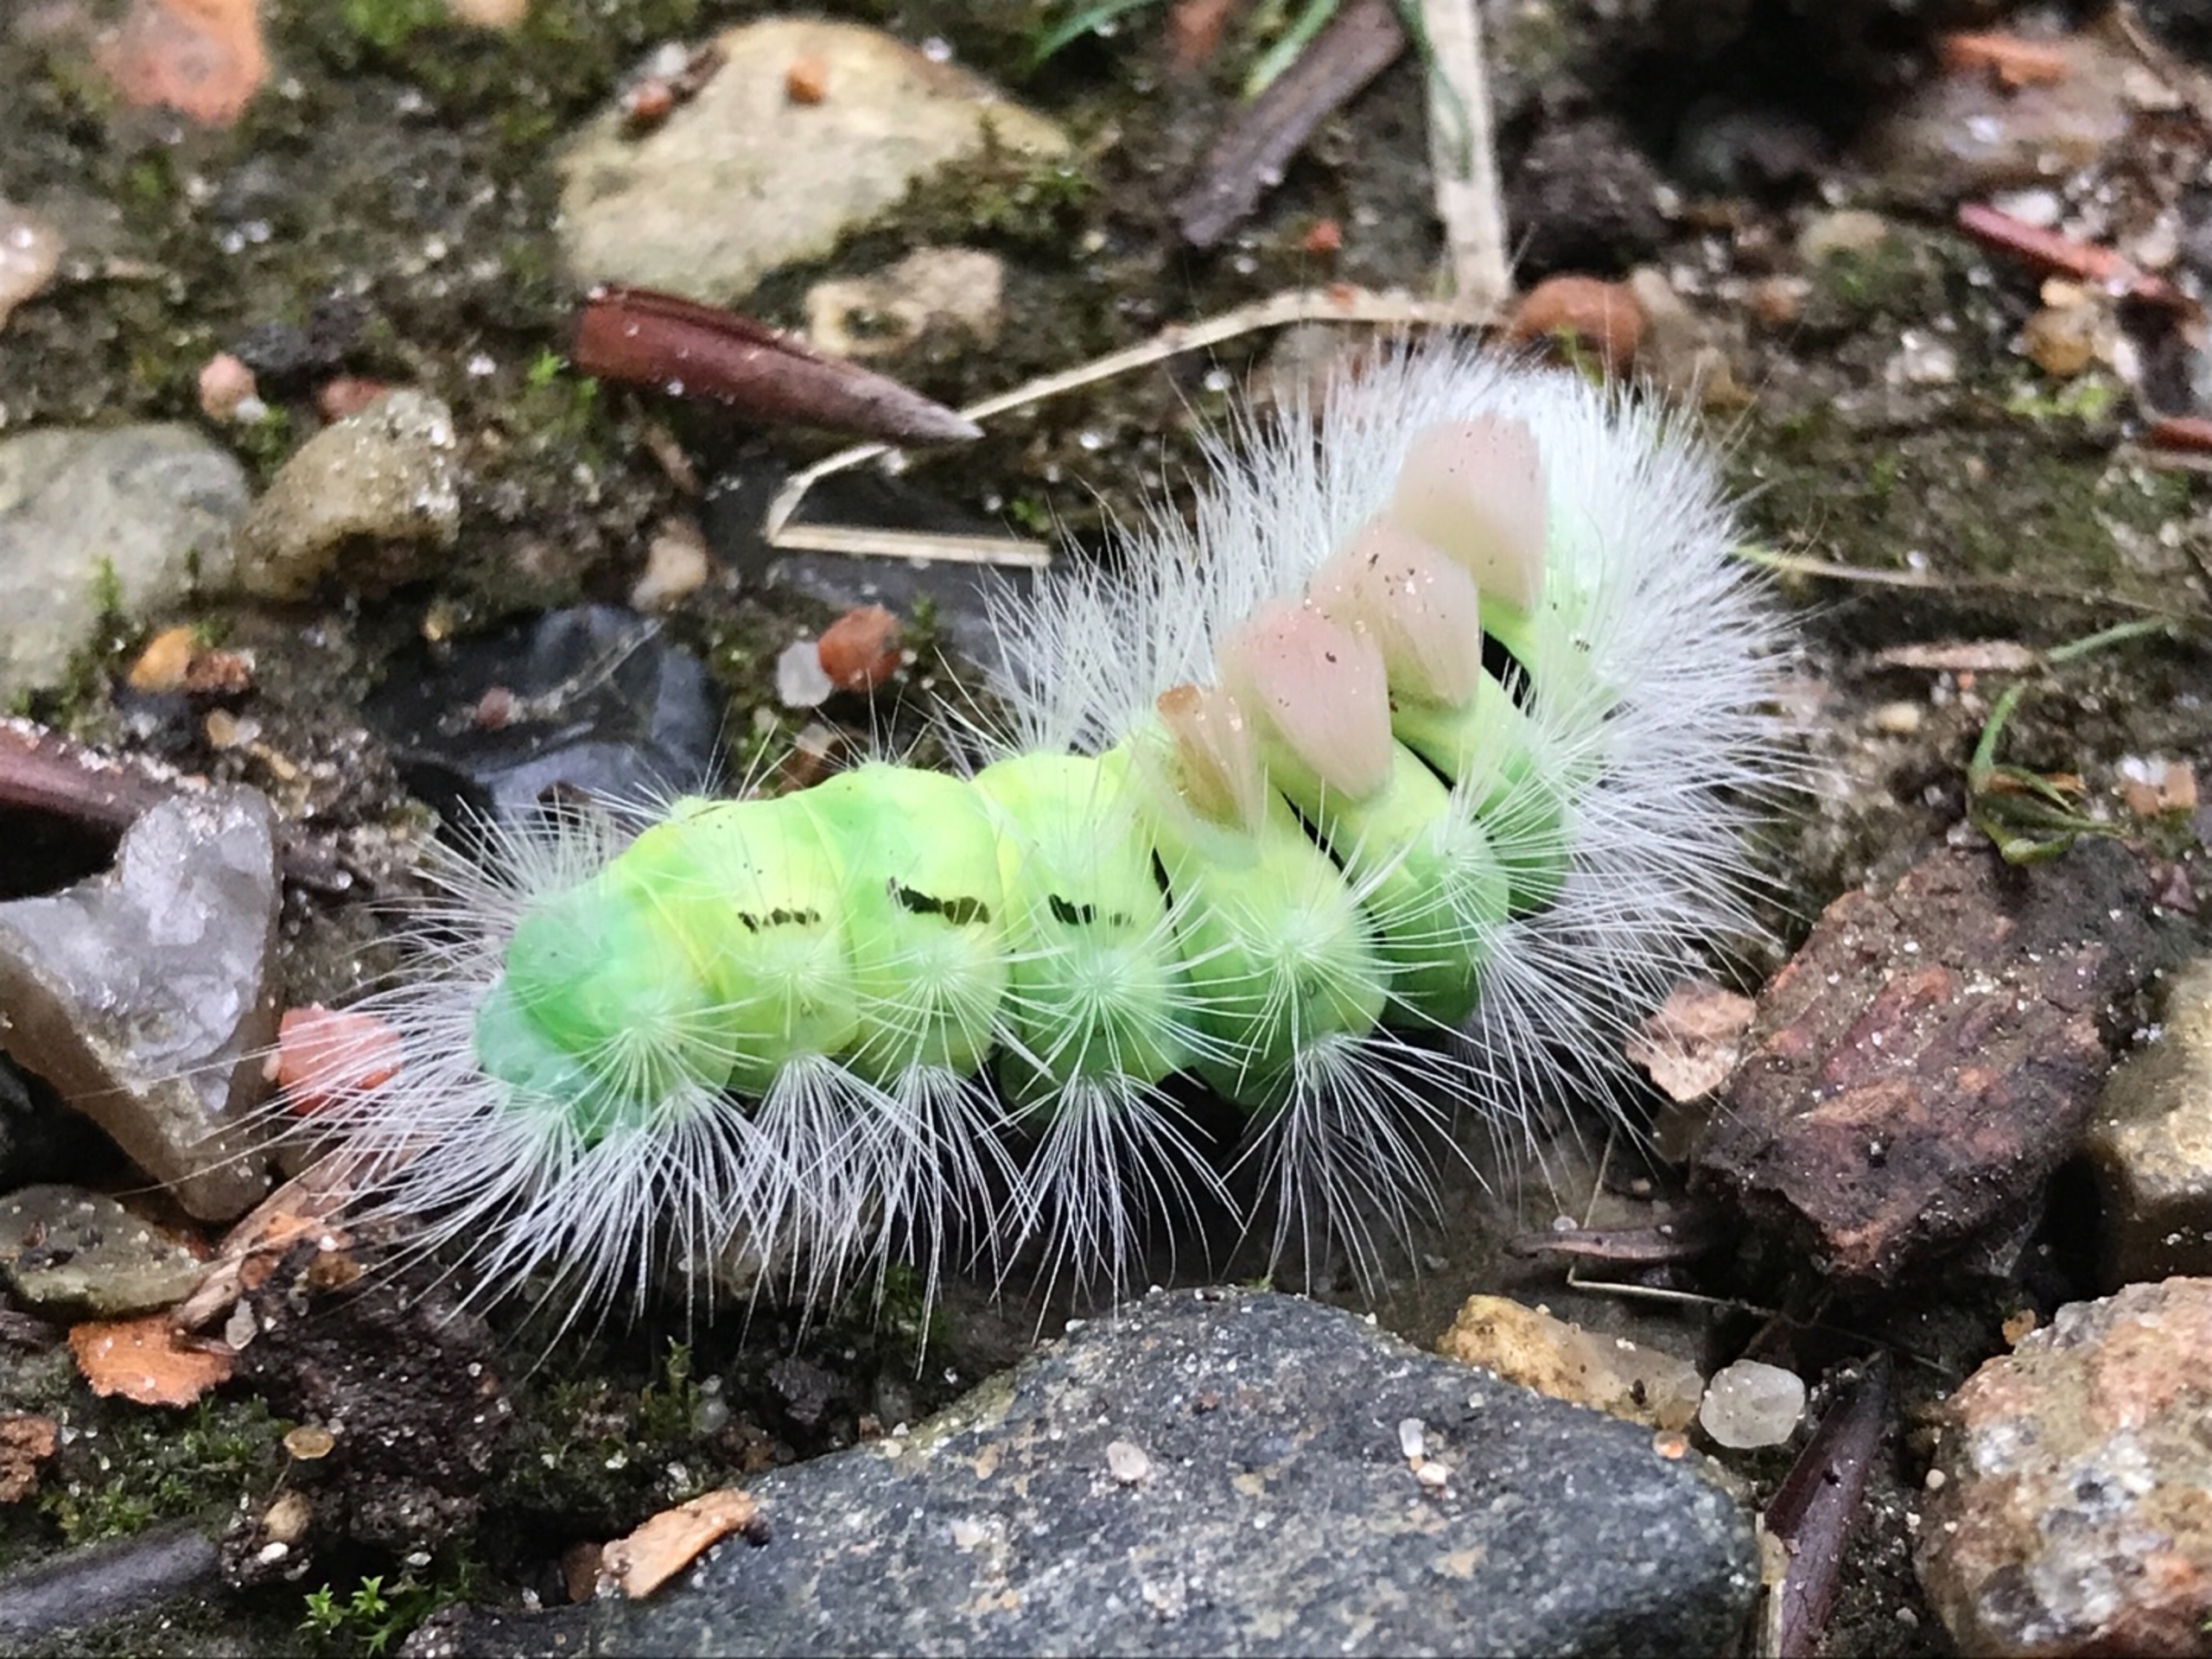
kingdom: Animalia
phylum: Arthropoda
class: Insecta
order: Lepidoptera
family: Erebidae
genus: Calliteara
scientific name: Calliteara pudibunda
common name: Bøgenonne
